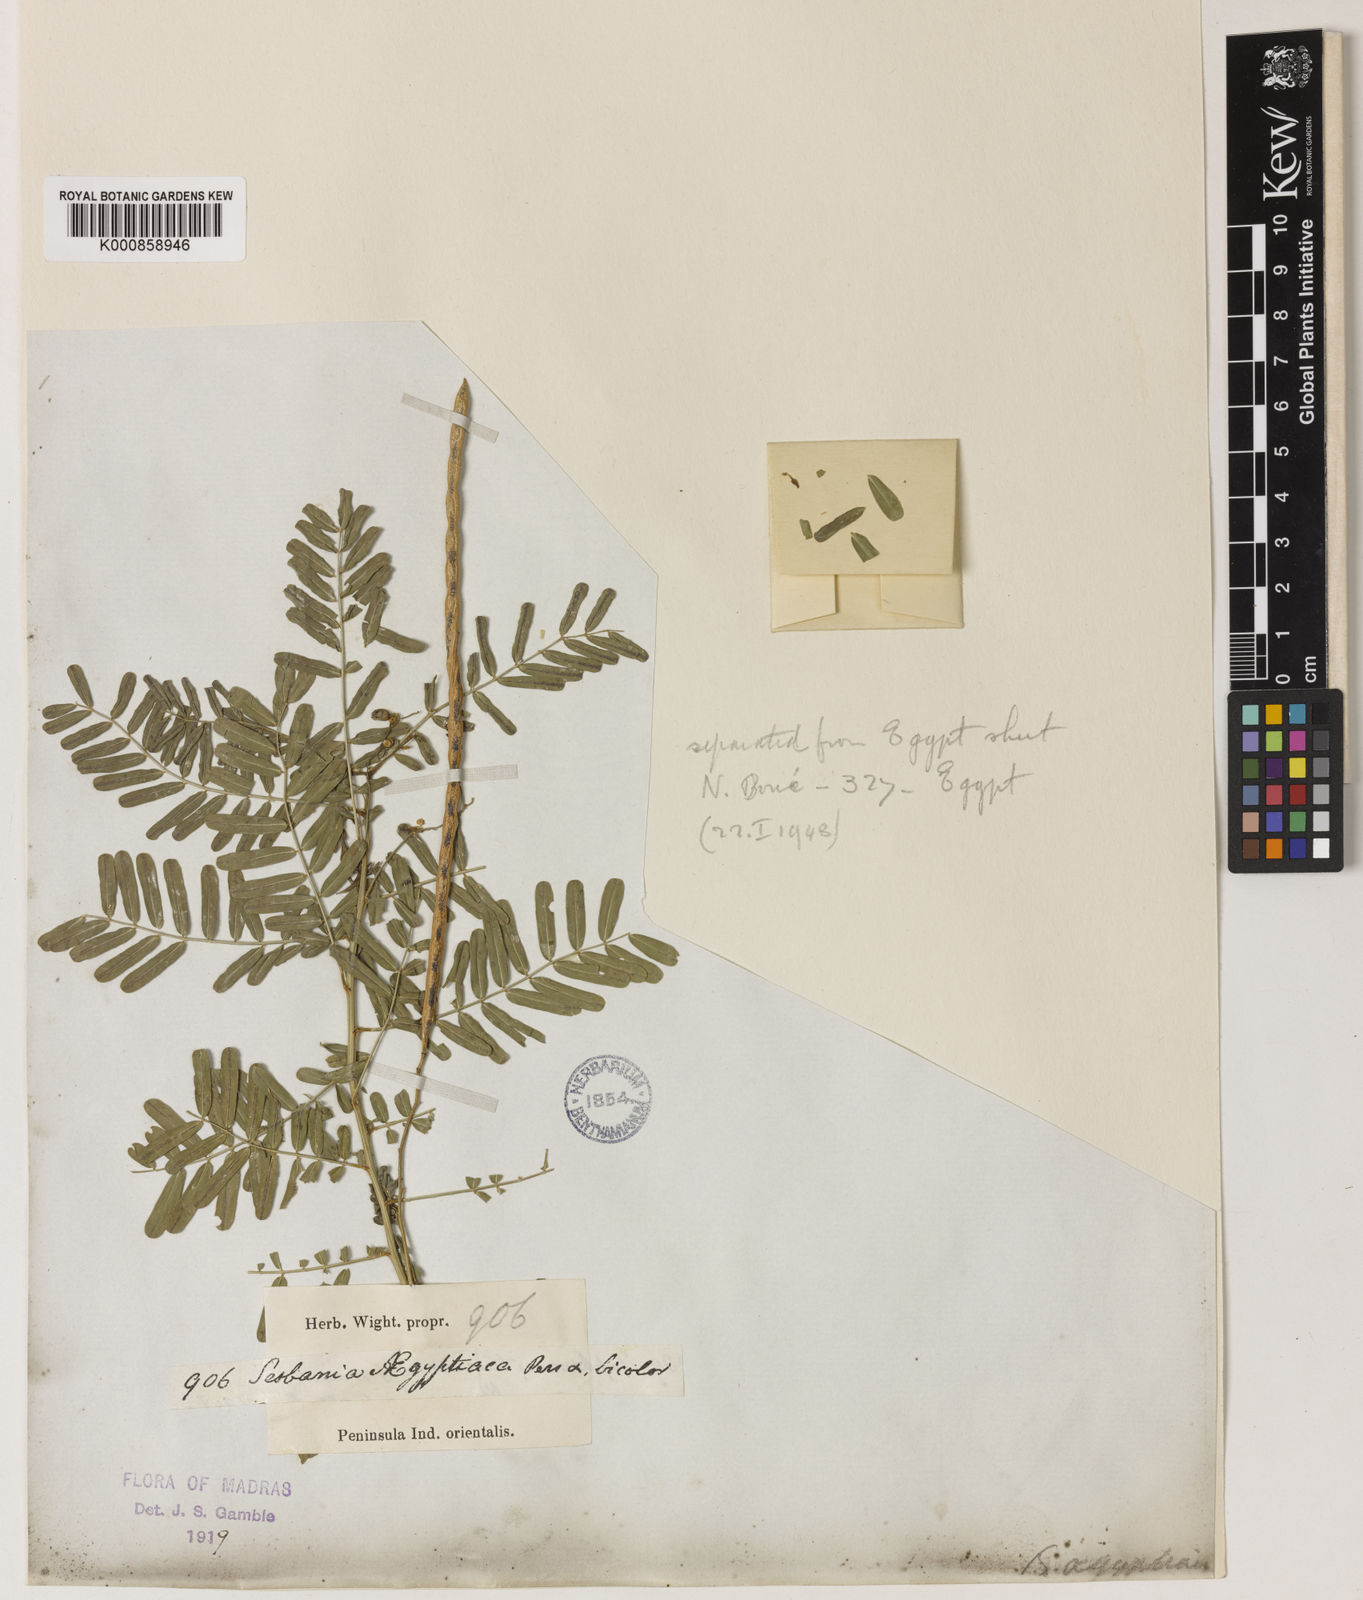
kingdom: Plantae
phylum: Tracheophyta
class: Magnoliopsida
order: Fabales
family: Fabaceae
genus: Sesbania
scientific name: Sesbania sesban
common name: Egyptian sesban
